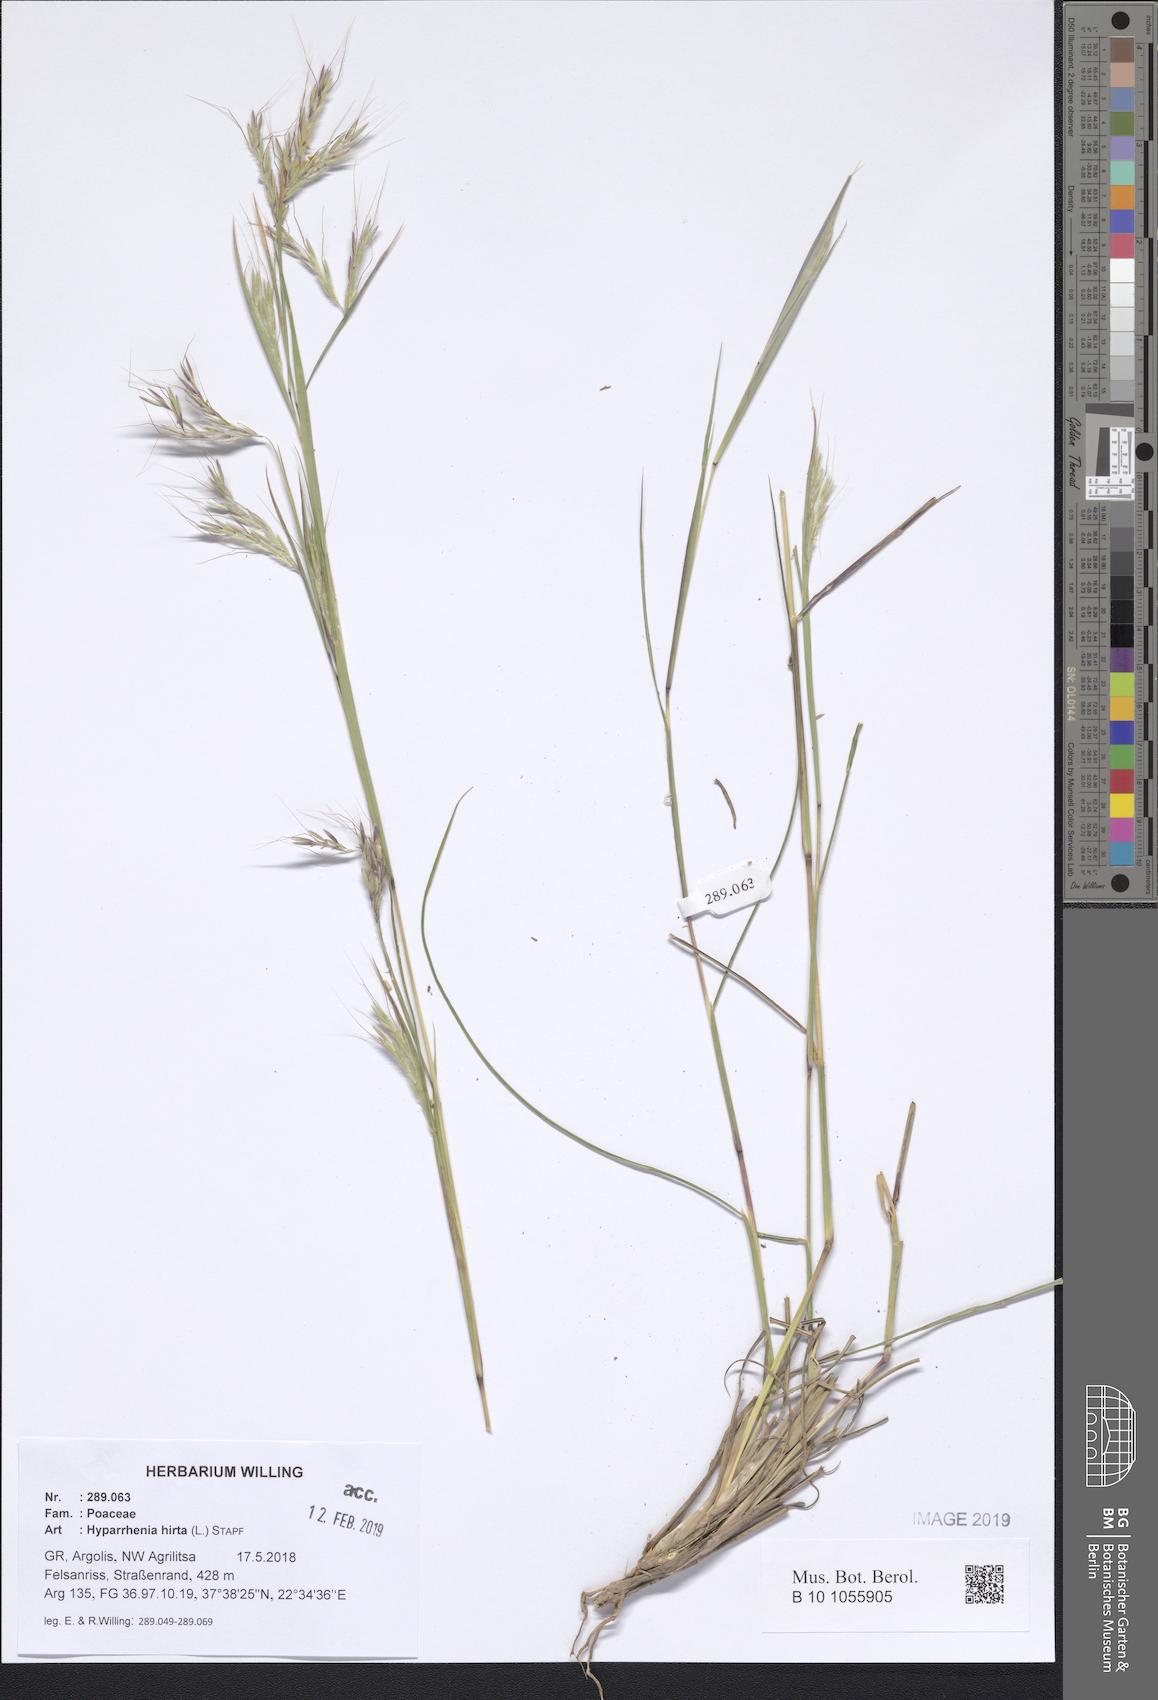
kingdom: Plantae
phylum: Tracheophyta
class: Liliopsida
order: Poales
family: Poaceae
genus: Hyparrhenia
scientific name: Hyparrhenia hirta
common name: Thatching grass
